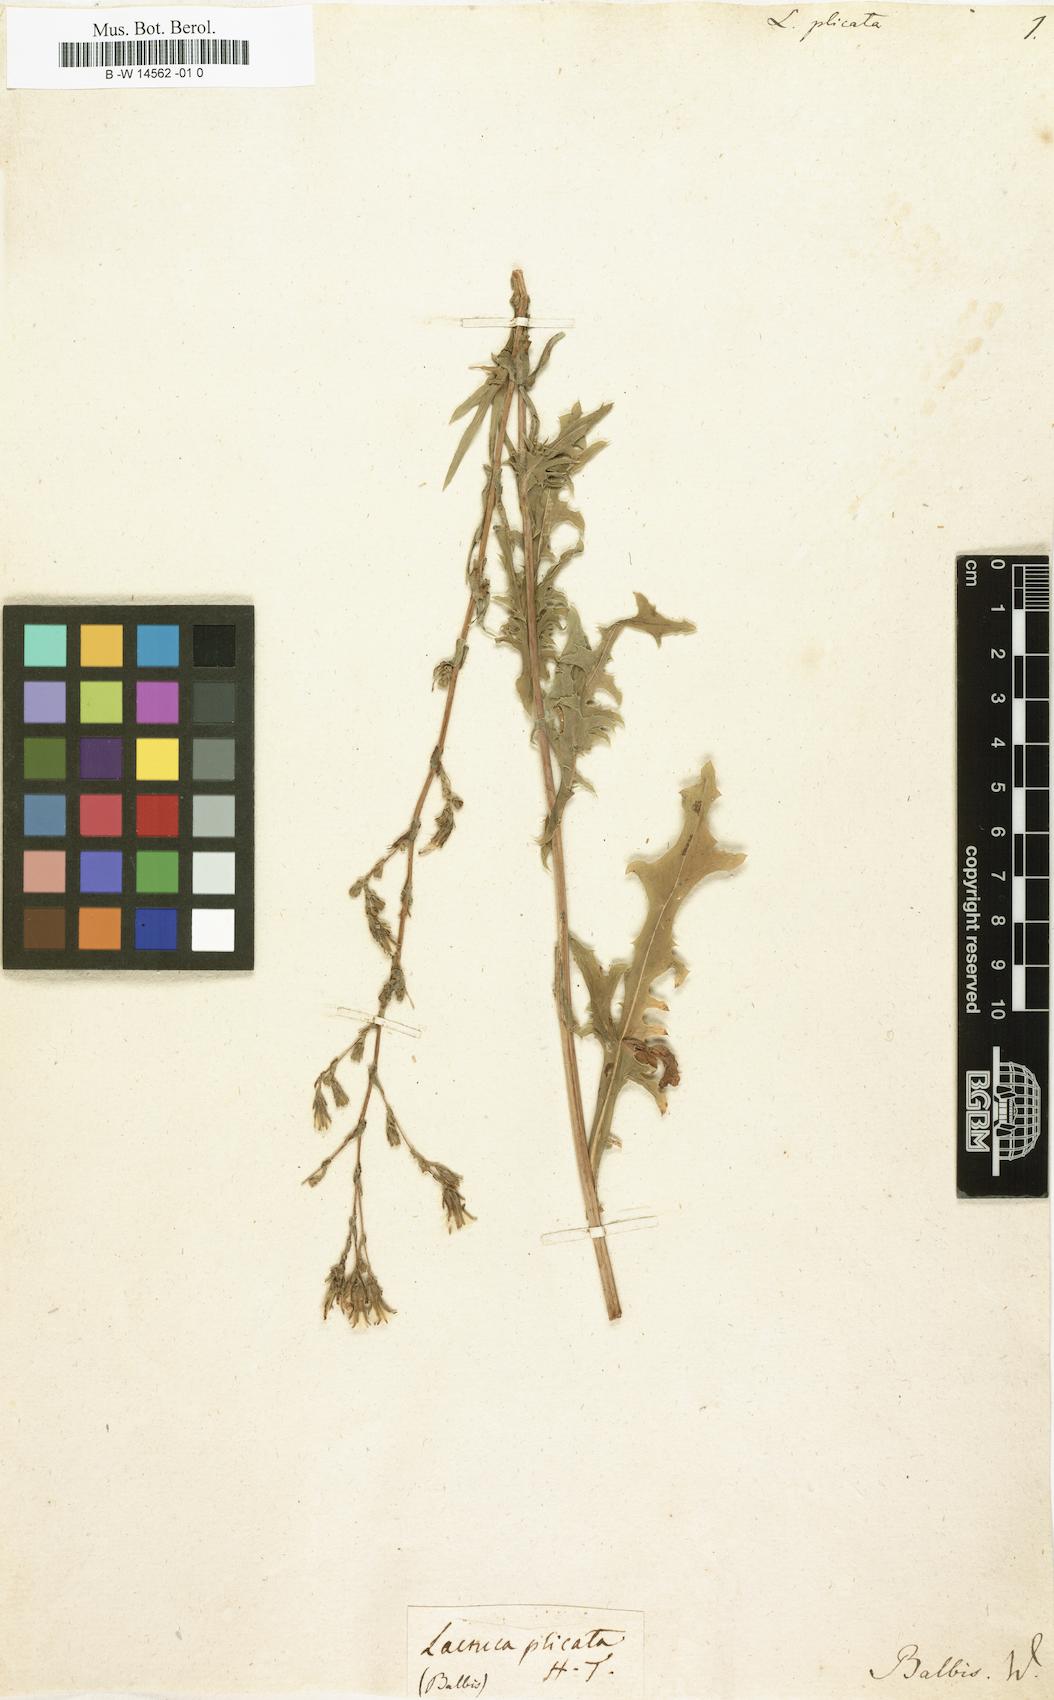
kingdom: Plantae
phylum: Tracheophyta
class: Magnoliopsida
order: Asterales
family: Asteraceae
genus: Lactuca
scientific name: Lactuca serriola
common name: Prickly lettuce
